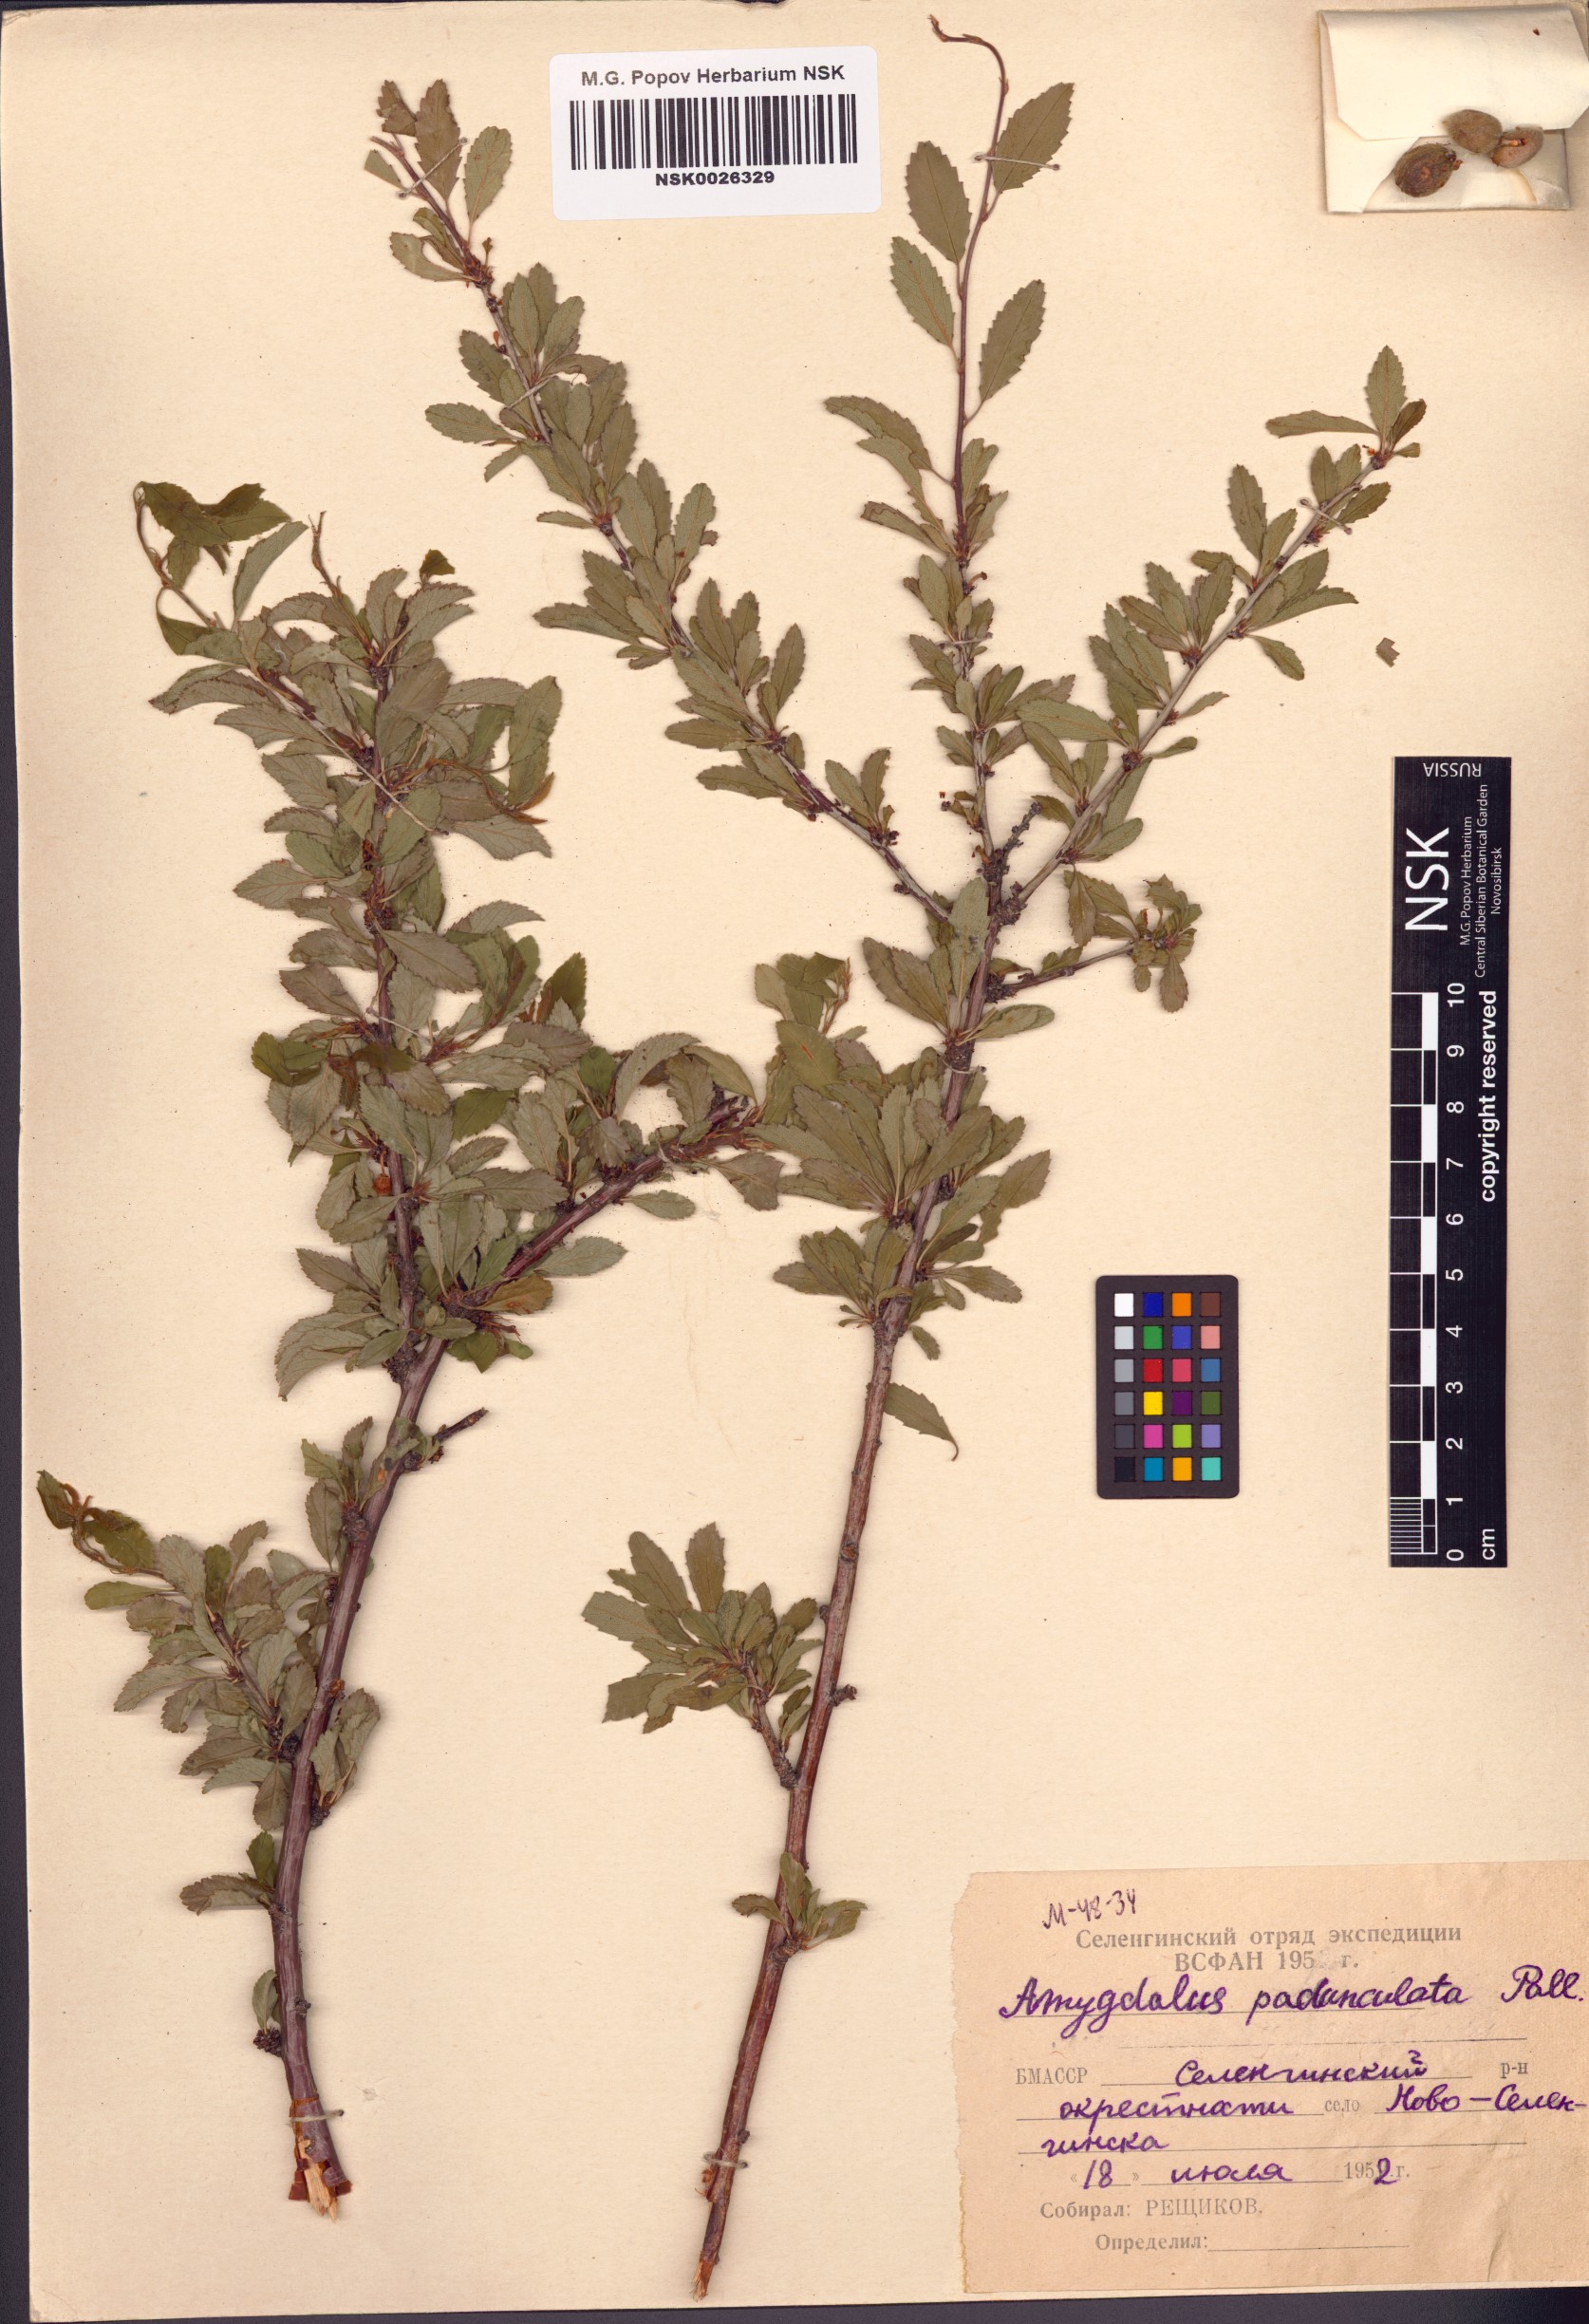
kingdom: Plantae
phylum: Tracheophyta
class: Magnoliopsida
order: Rosales
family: Rosaceae
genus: Prunus
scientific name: Prunus pedunculata
